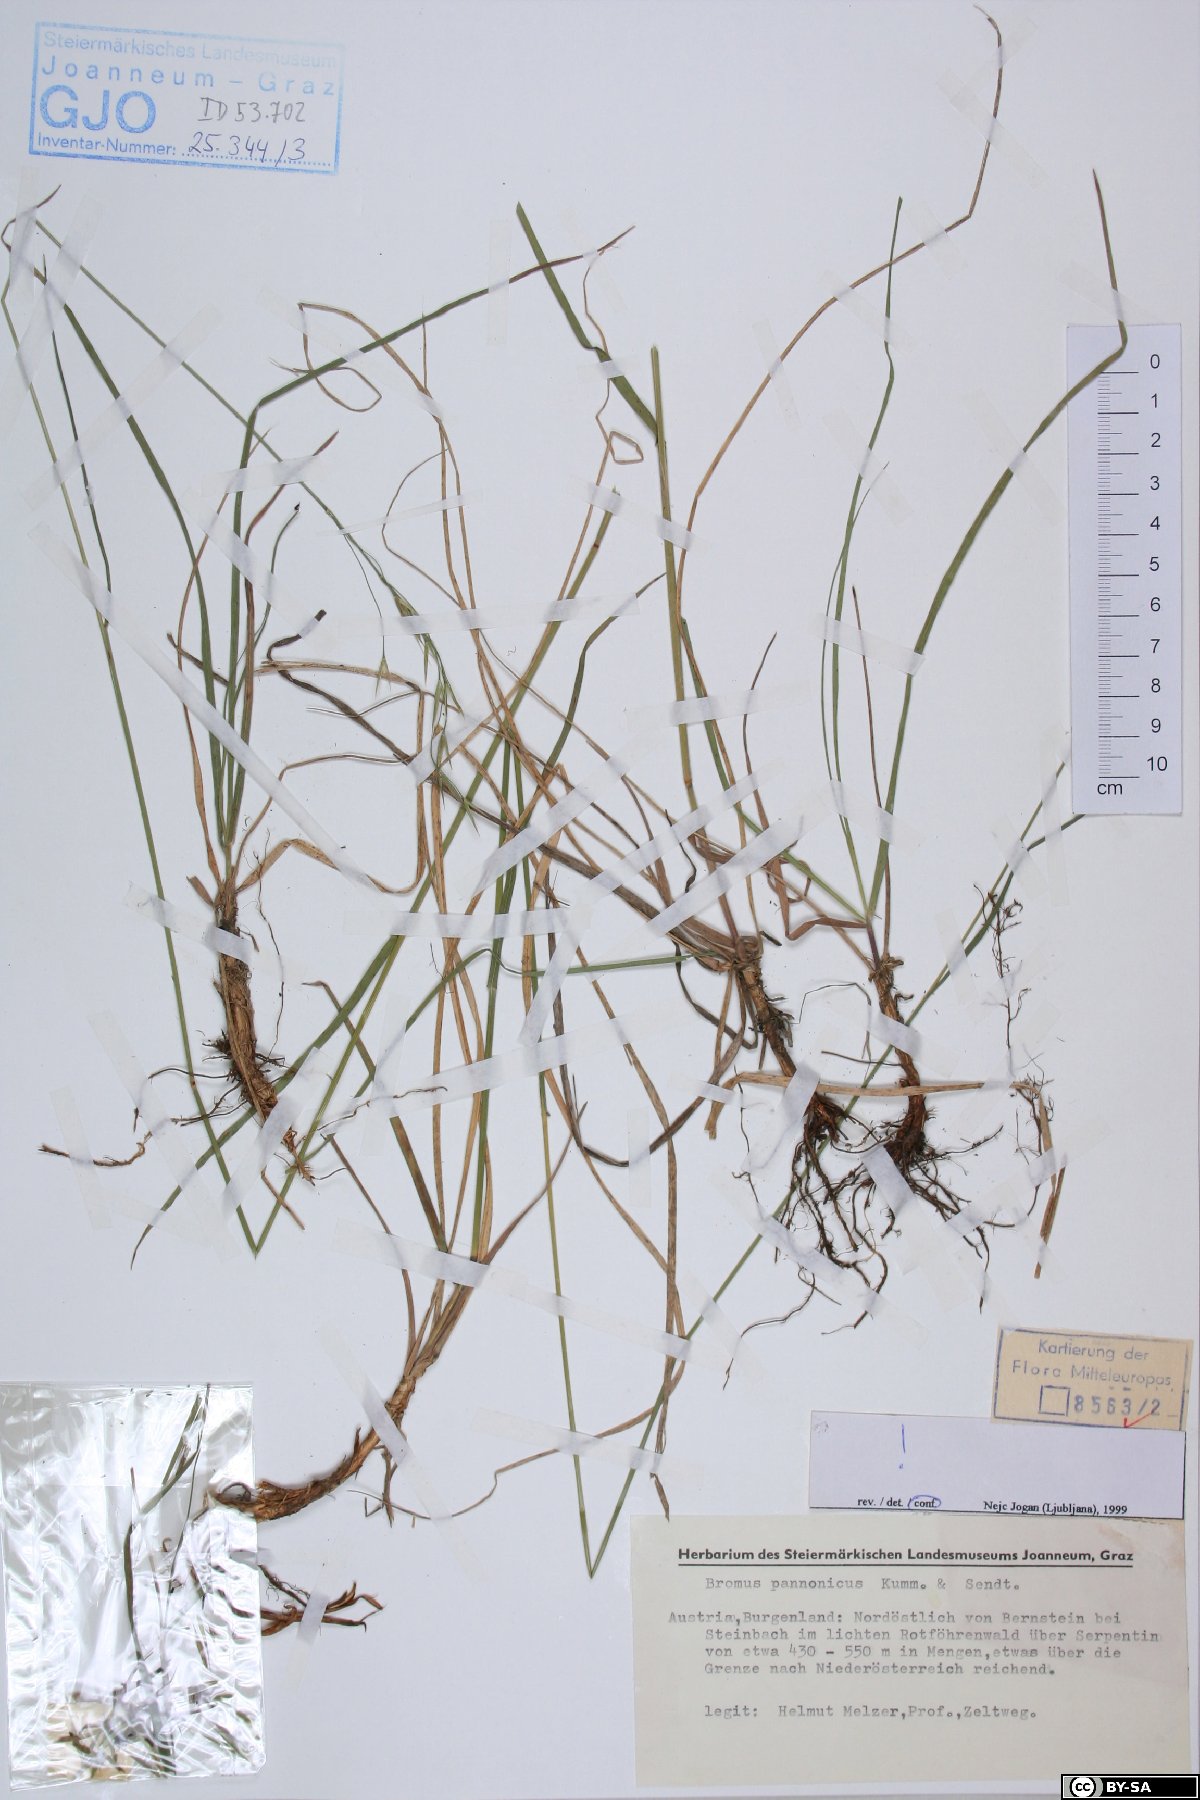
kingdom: Plantae
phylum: Tracheophyta
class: Liliopsida
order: Poales
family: Poaceae
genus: Bromus
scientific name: Bromus pannonicus
